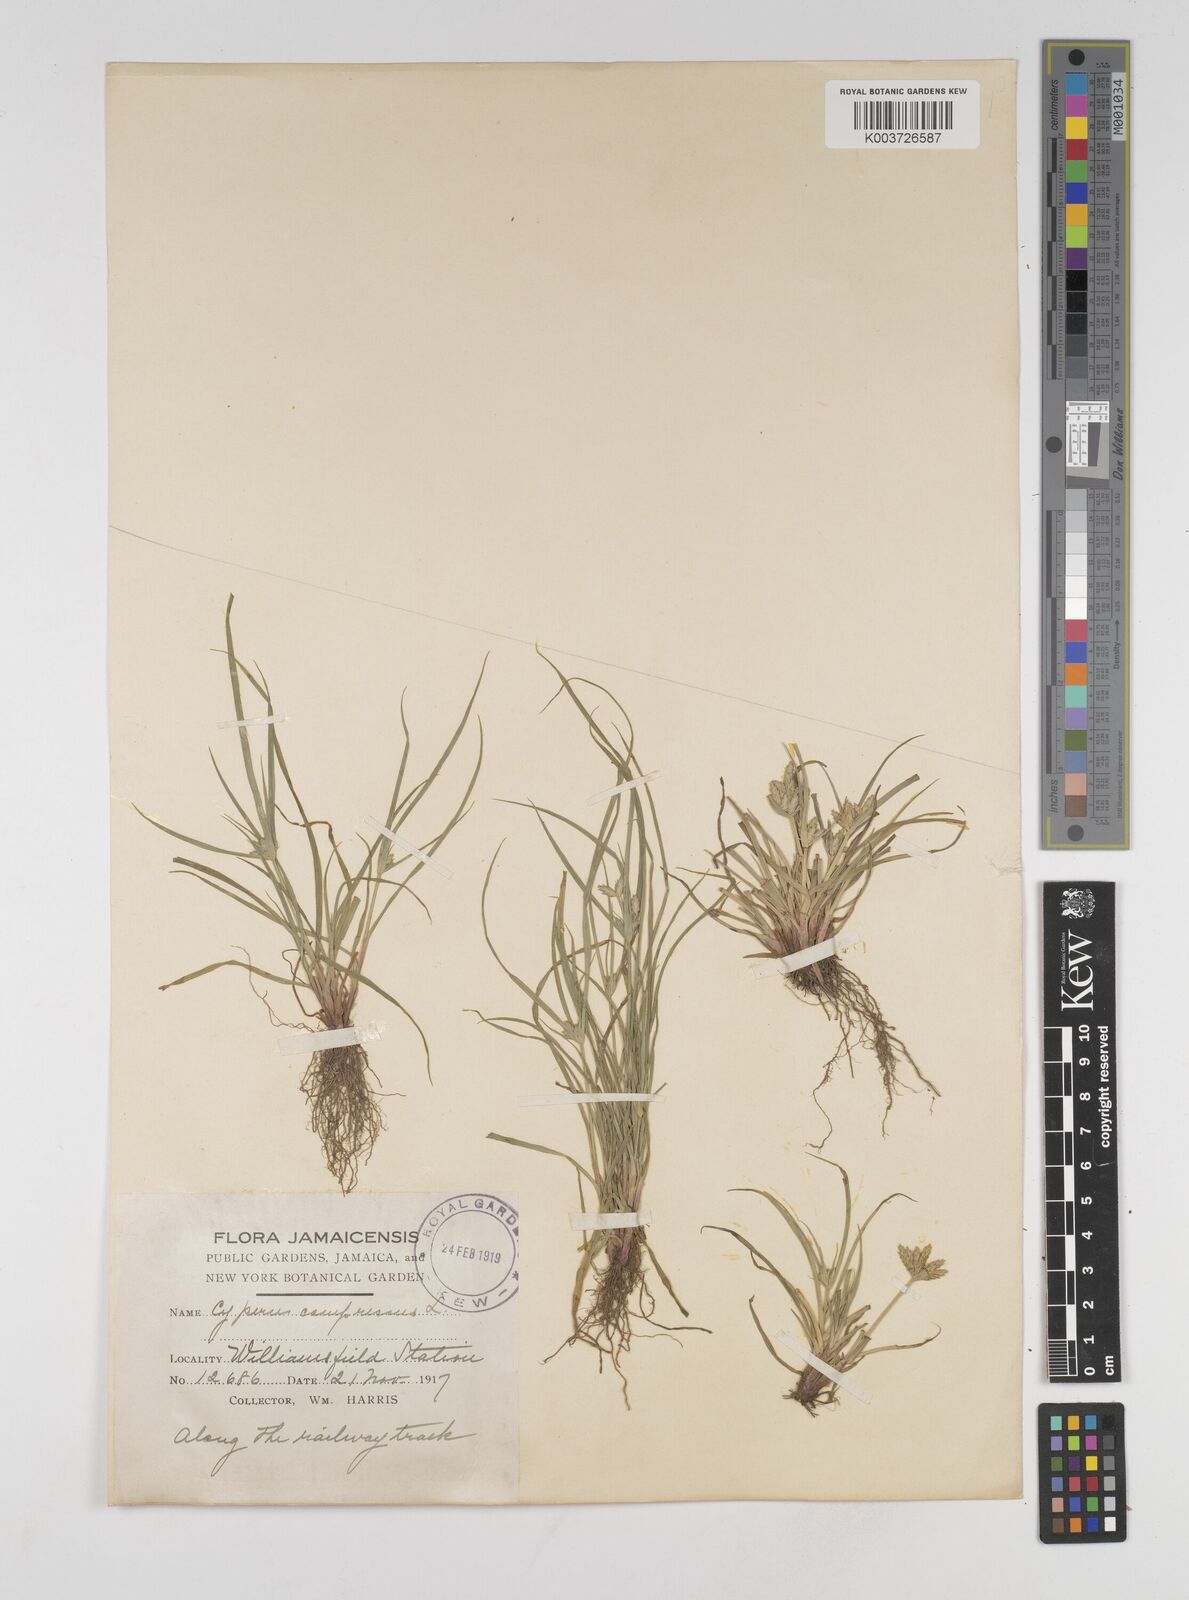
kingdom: Plantae
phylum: Tracheophyta
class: Liliopsida
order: Poales
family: Cyperaceae
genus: Cyperus
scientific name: Cyperus compressus
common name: Poorland flatsedge
